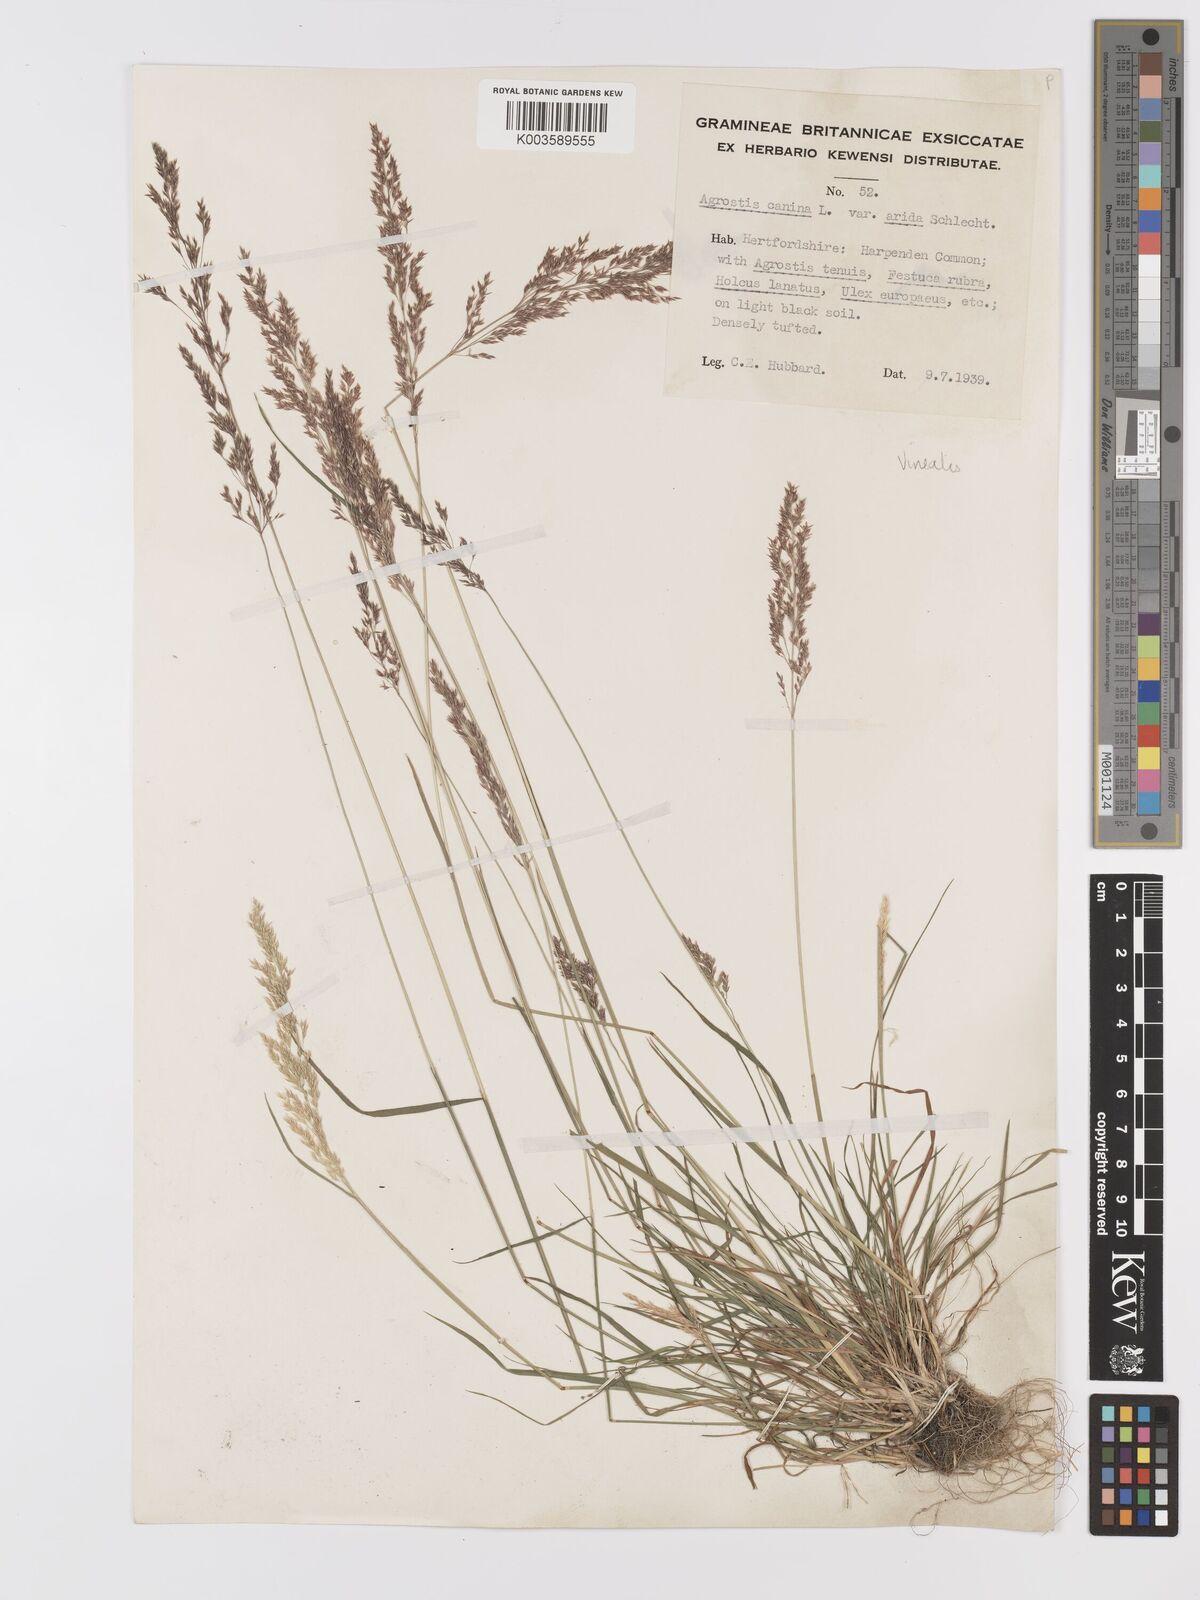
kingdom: Plantae
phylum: Tracheophyta
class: Liliopsida
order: Poales
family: Poaceae
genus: Agrostis
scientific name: Agrostis
